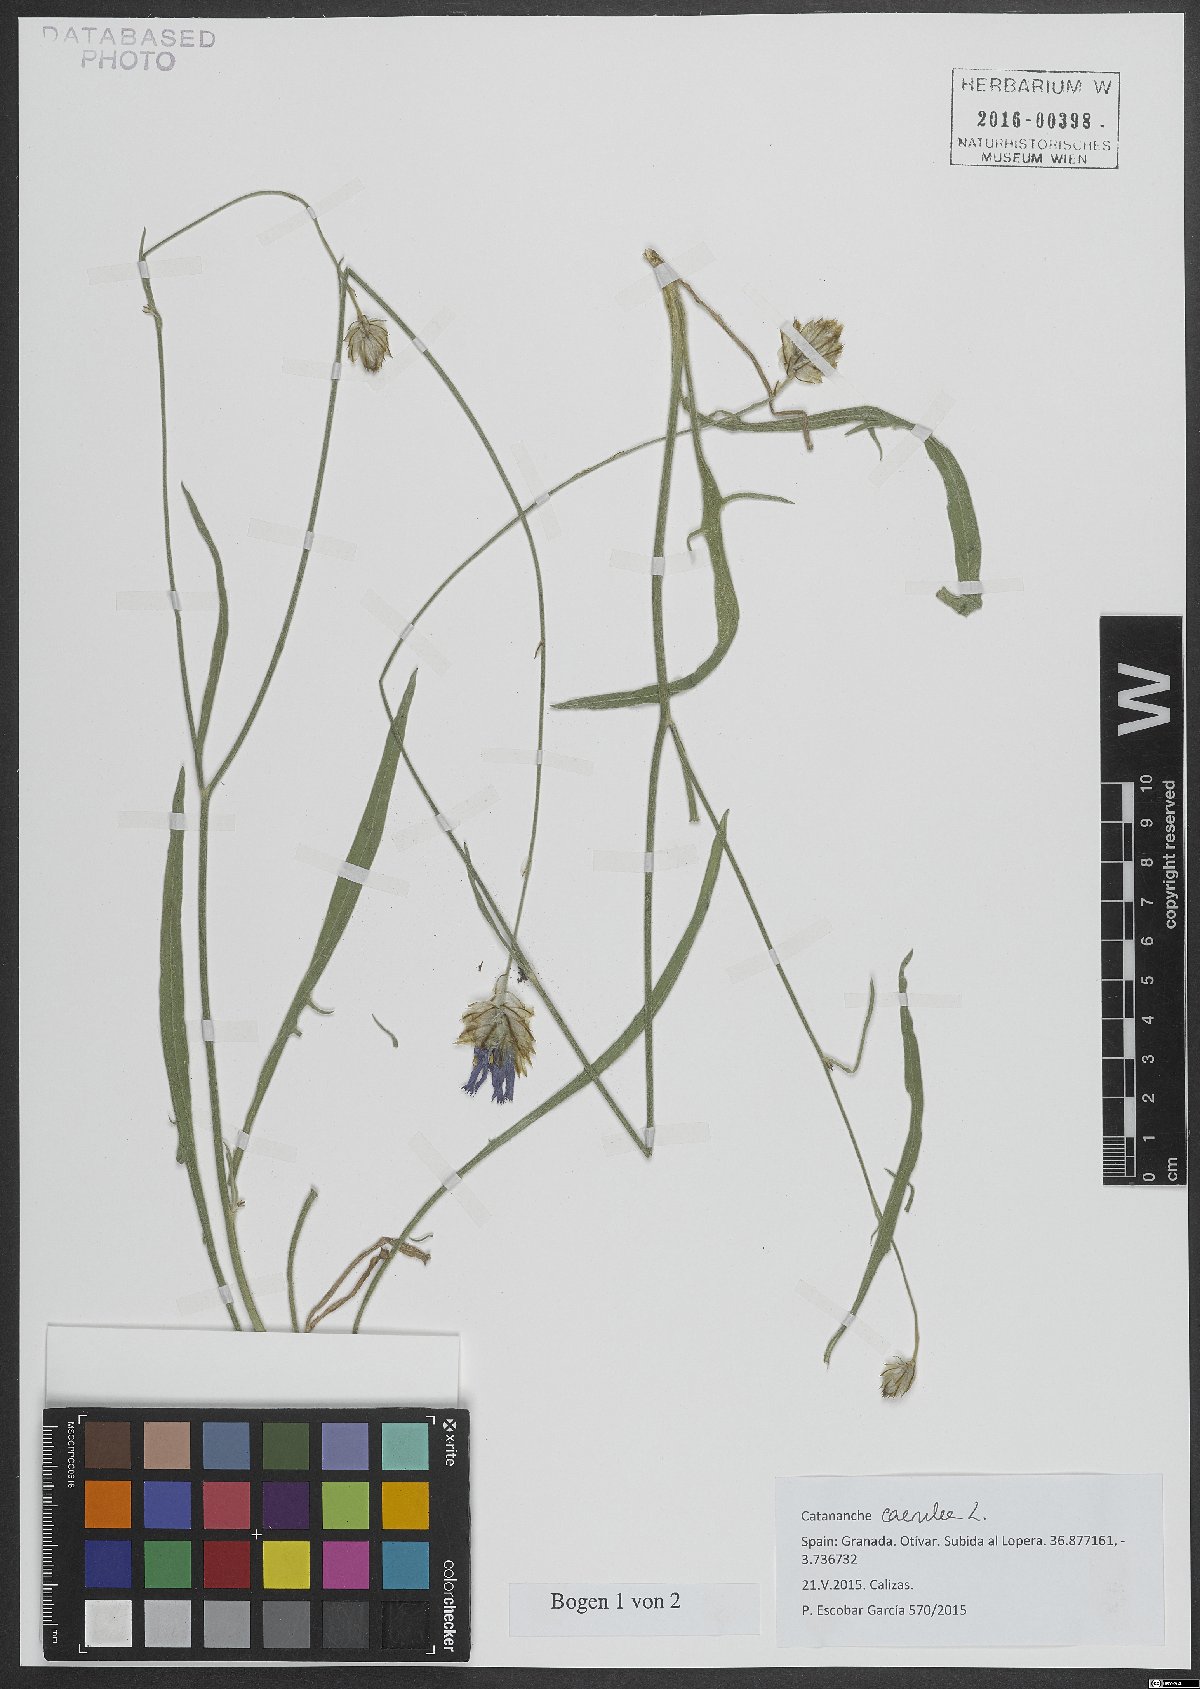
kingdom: Plantae
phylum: Tracheophyta
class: Magnoliopsida
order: Asterales
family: Asteraceae
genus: Catananche
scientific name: Catananche caerulea
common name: Blue cupidone
